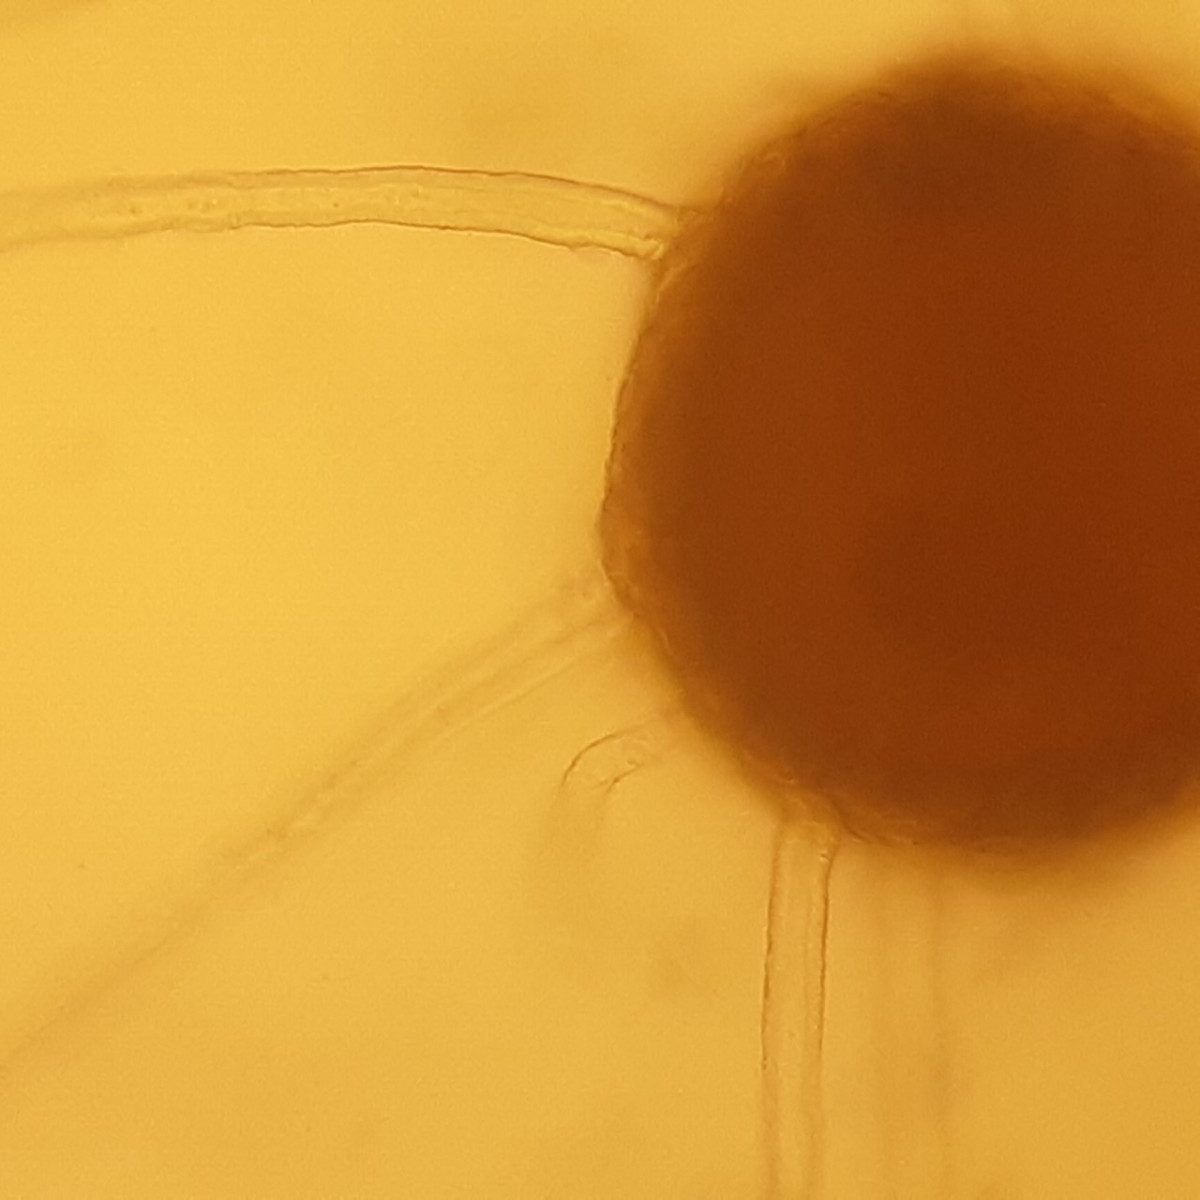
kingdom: Fungi
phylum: Ascomycota
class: Leotiomycetes
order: Helotiales
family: Erysiphaceae
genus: Erysiphe
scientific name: Erysiphe baeumleri
